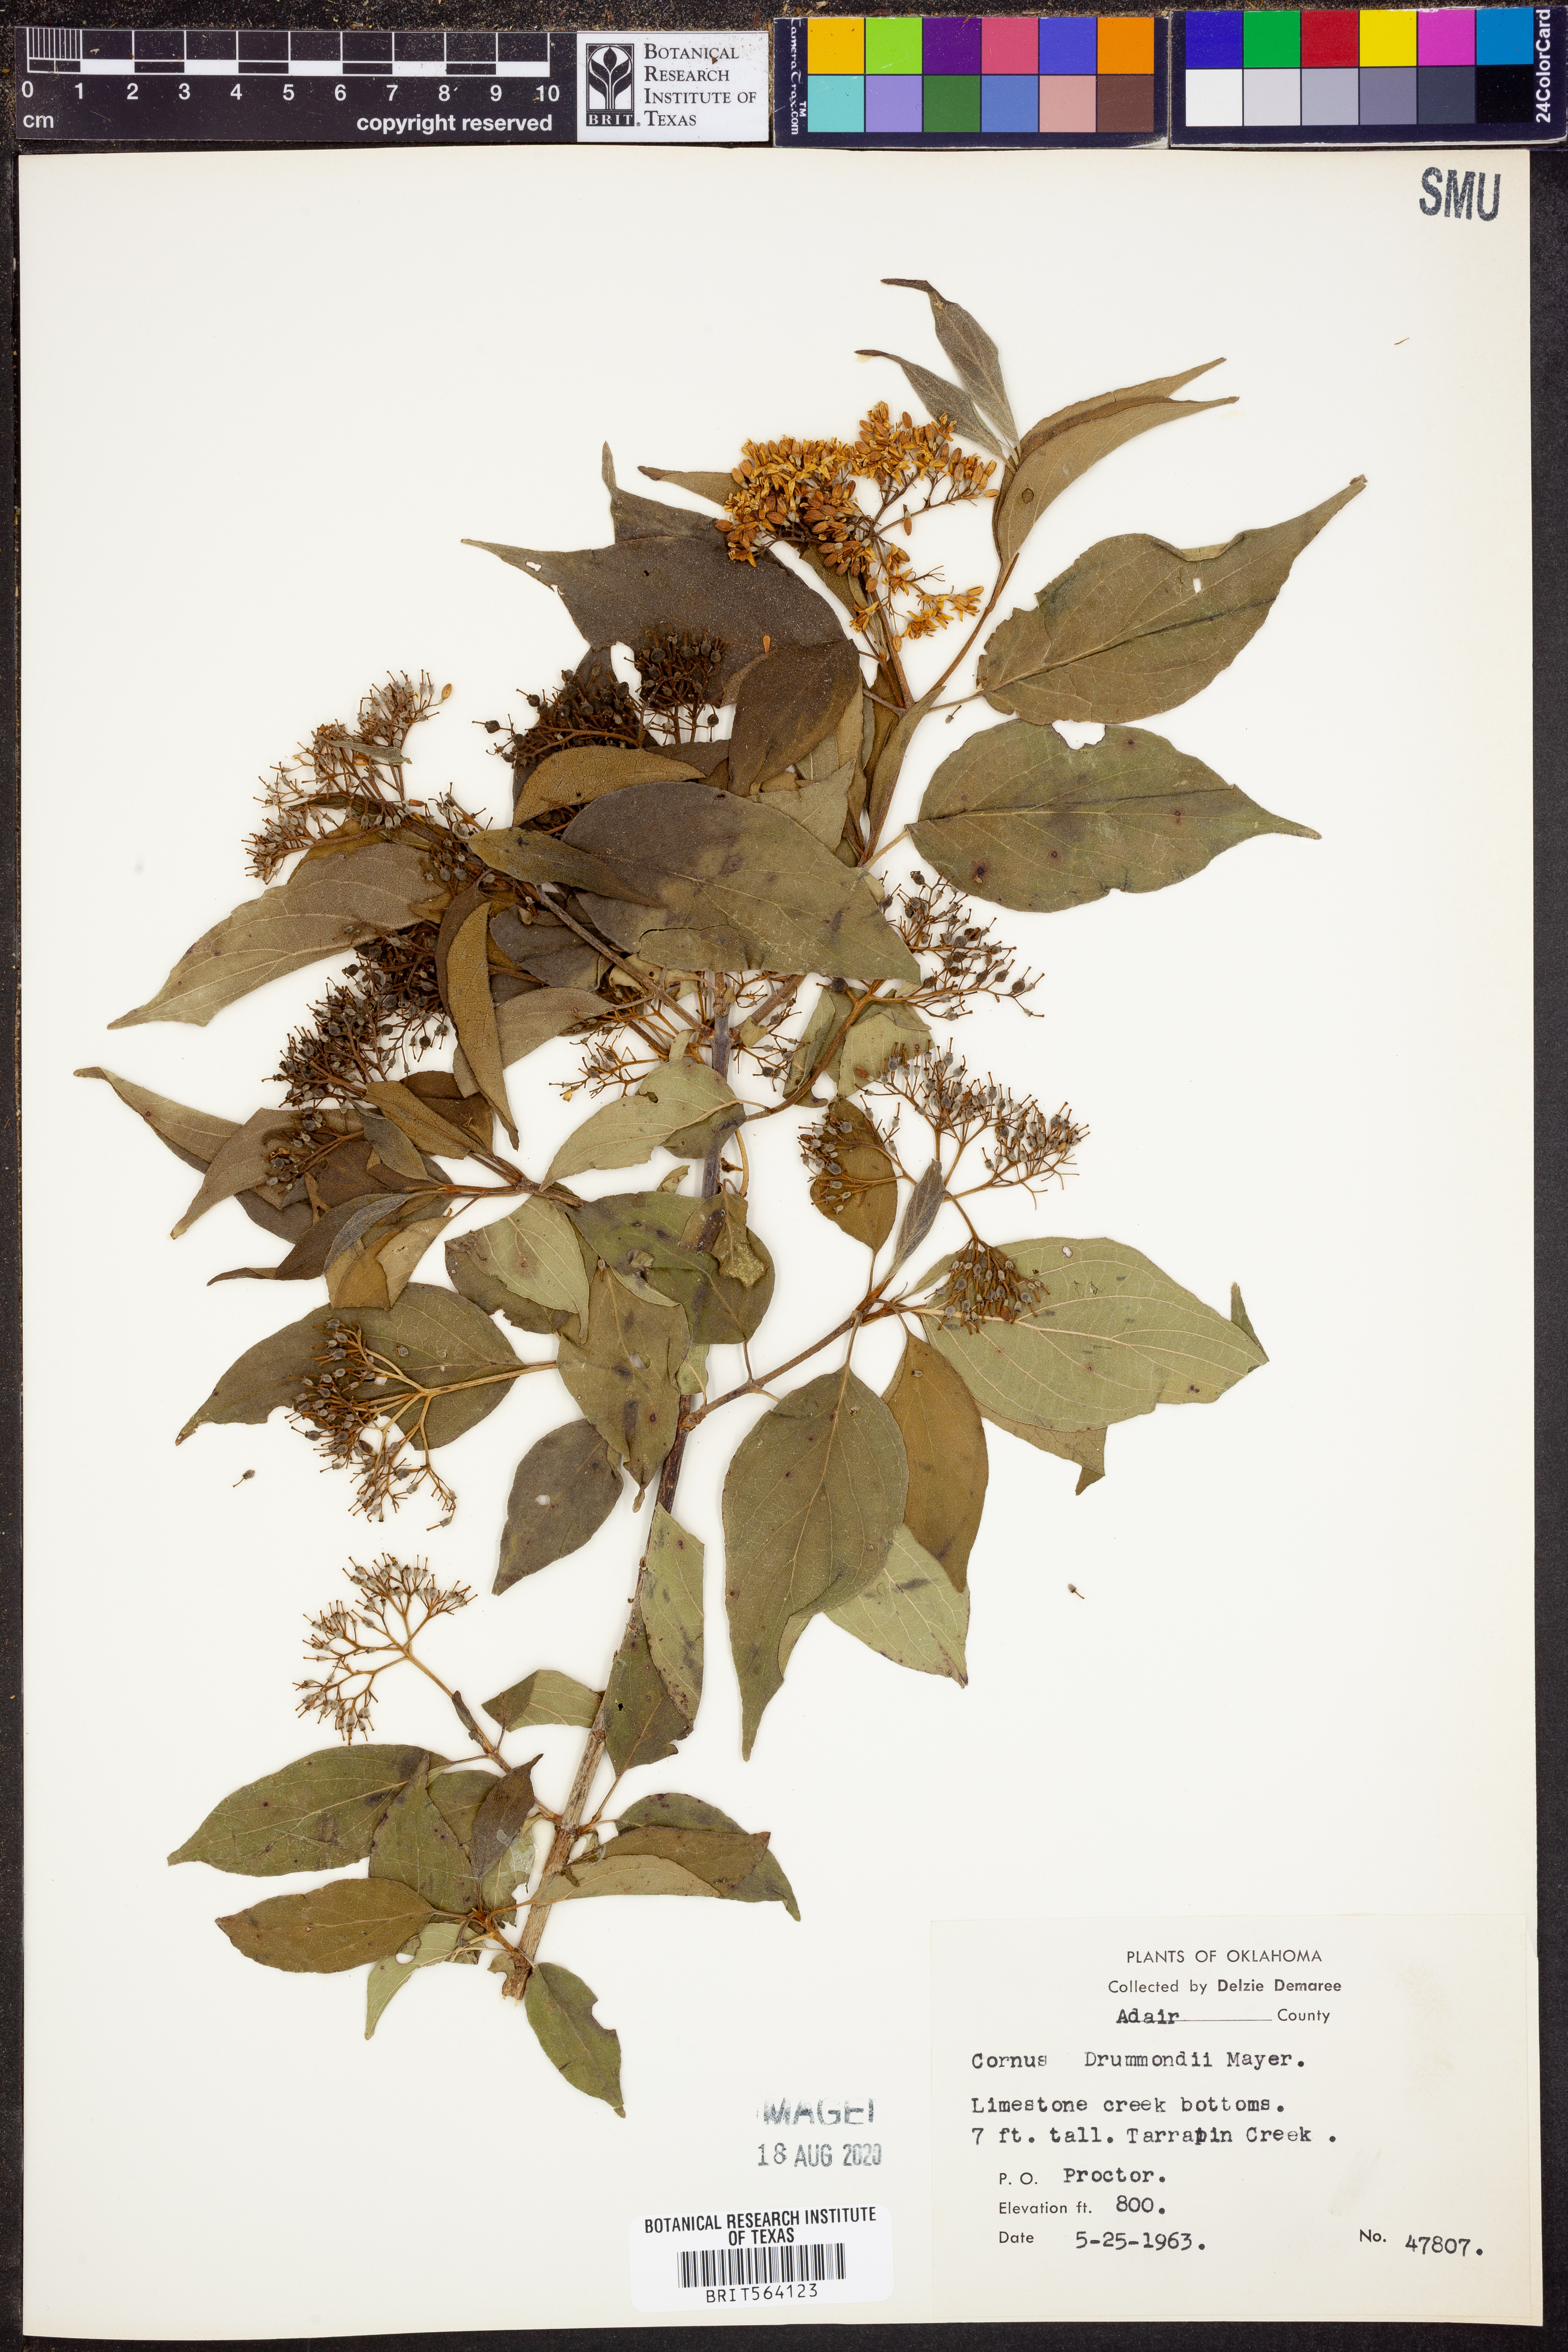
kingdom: Plantae
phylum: Tracheophyta
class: Magnoliopsida
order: Cornales
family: Cornaceae
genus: Cornus
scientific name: Cornus drummondii
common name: Rough-leaf dogwood
